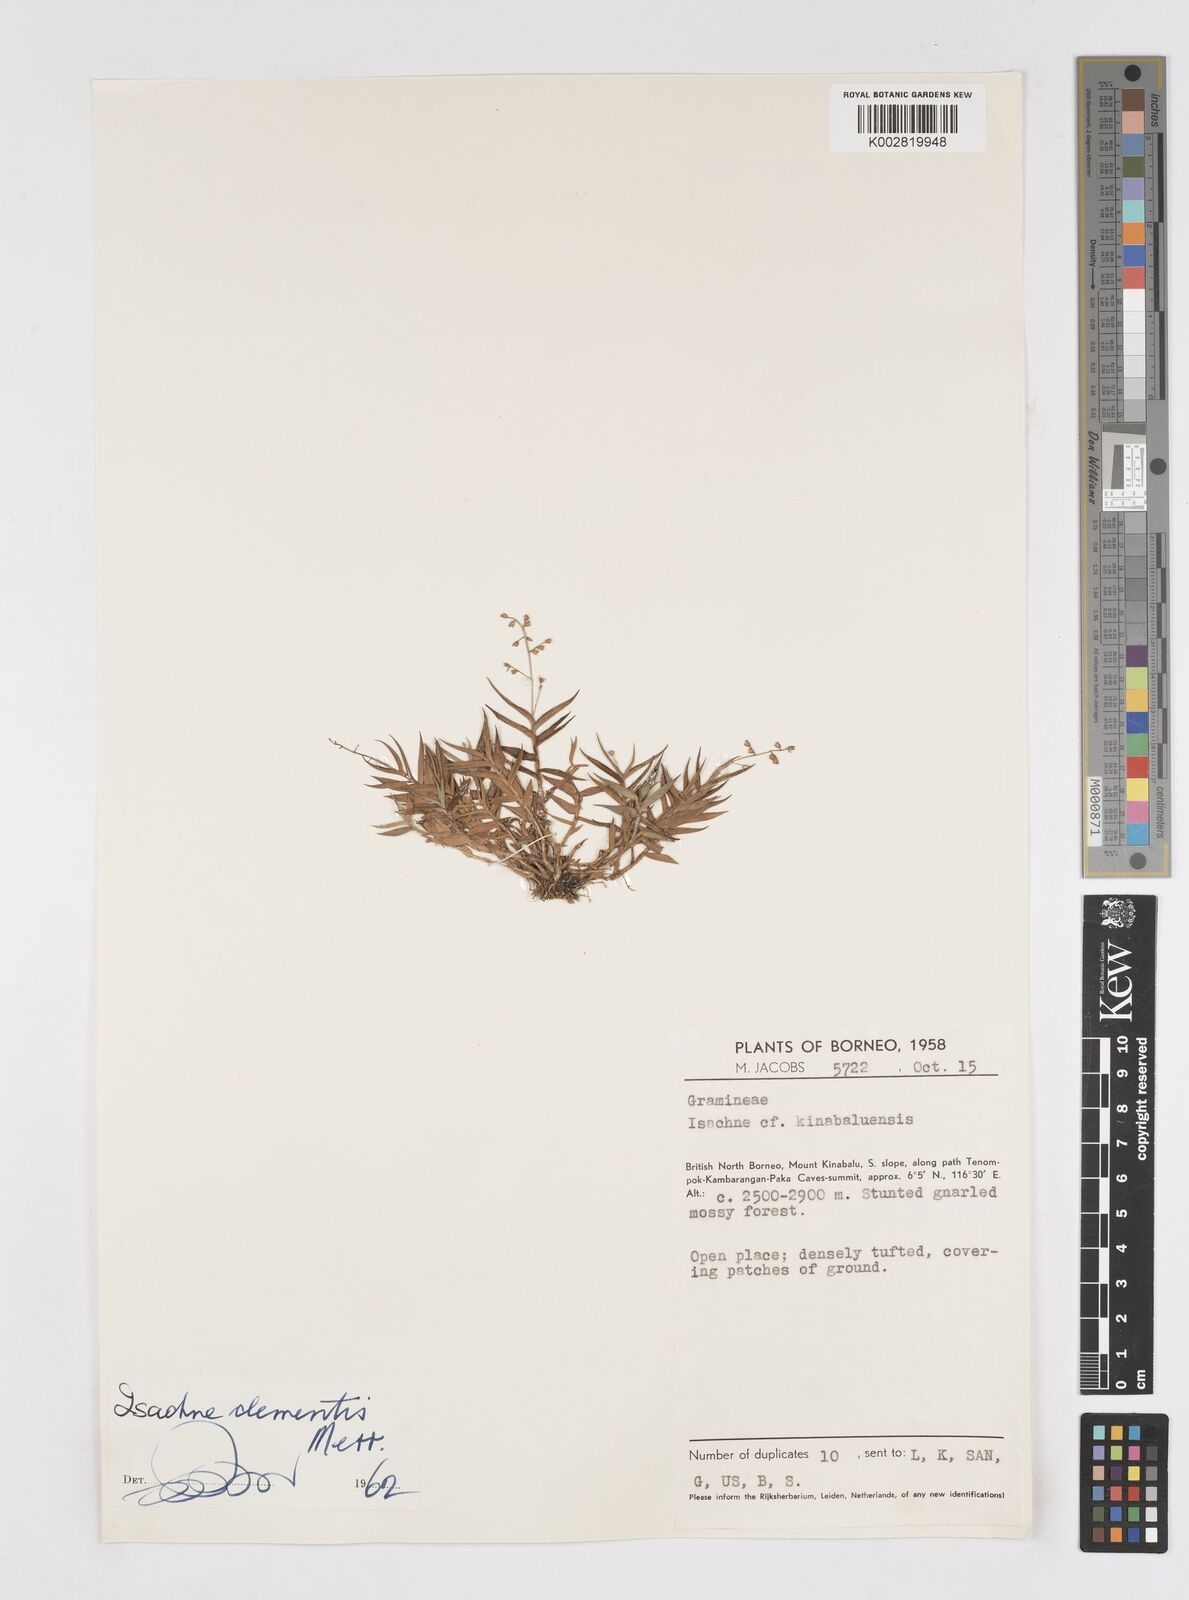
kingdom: Plantae
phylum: Tracheophyta
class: Liliopsida
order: Poales
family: Poaceae
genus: Isachne
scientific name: Isachne clementis
